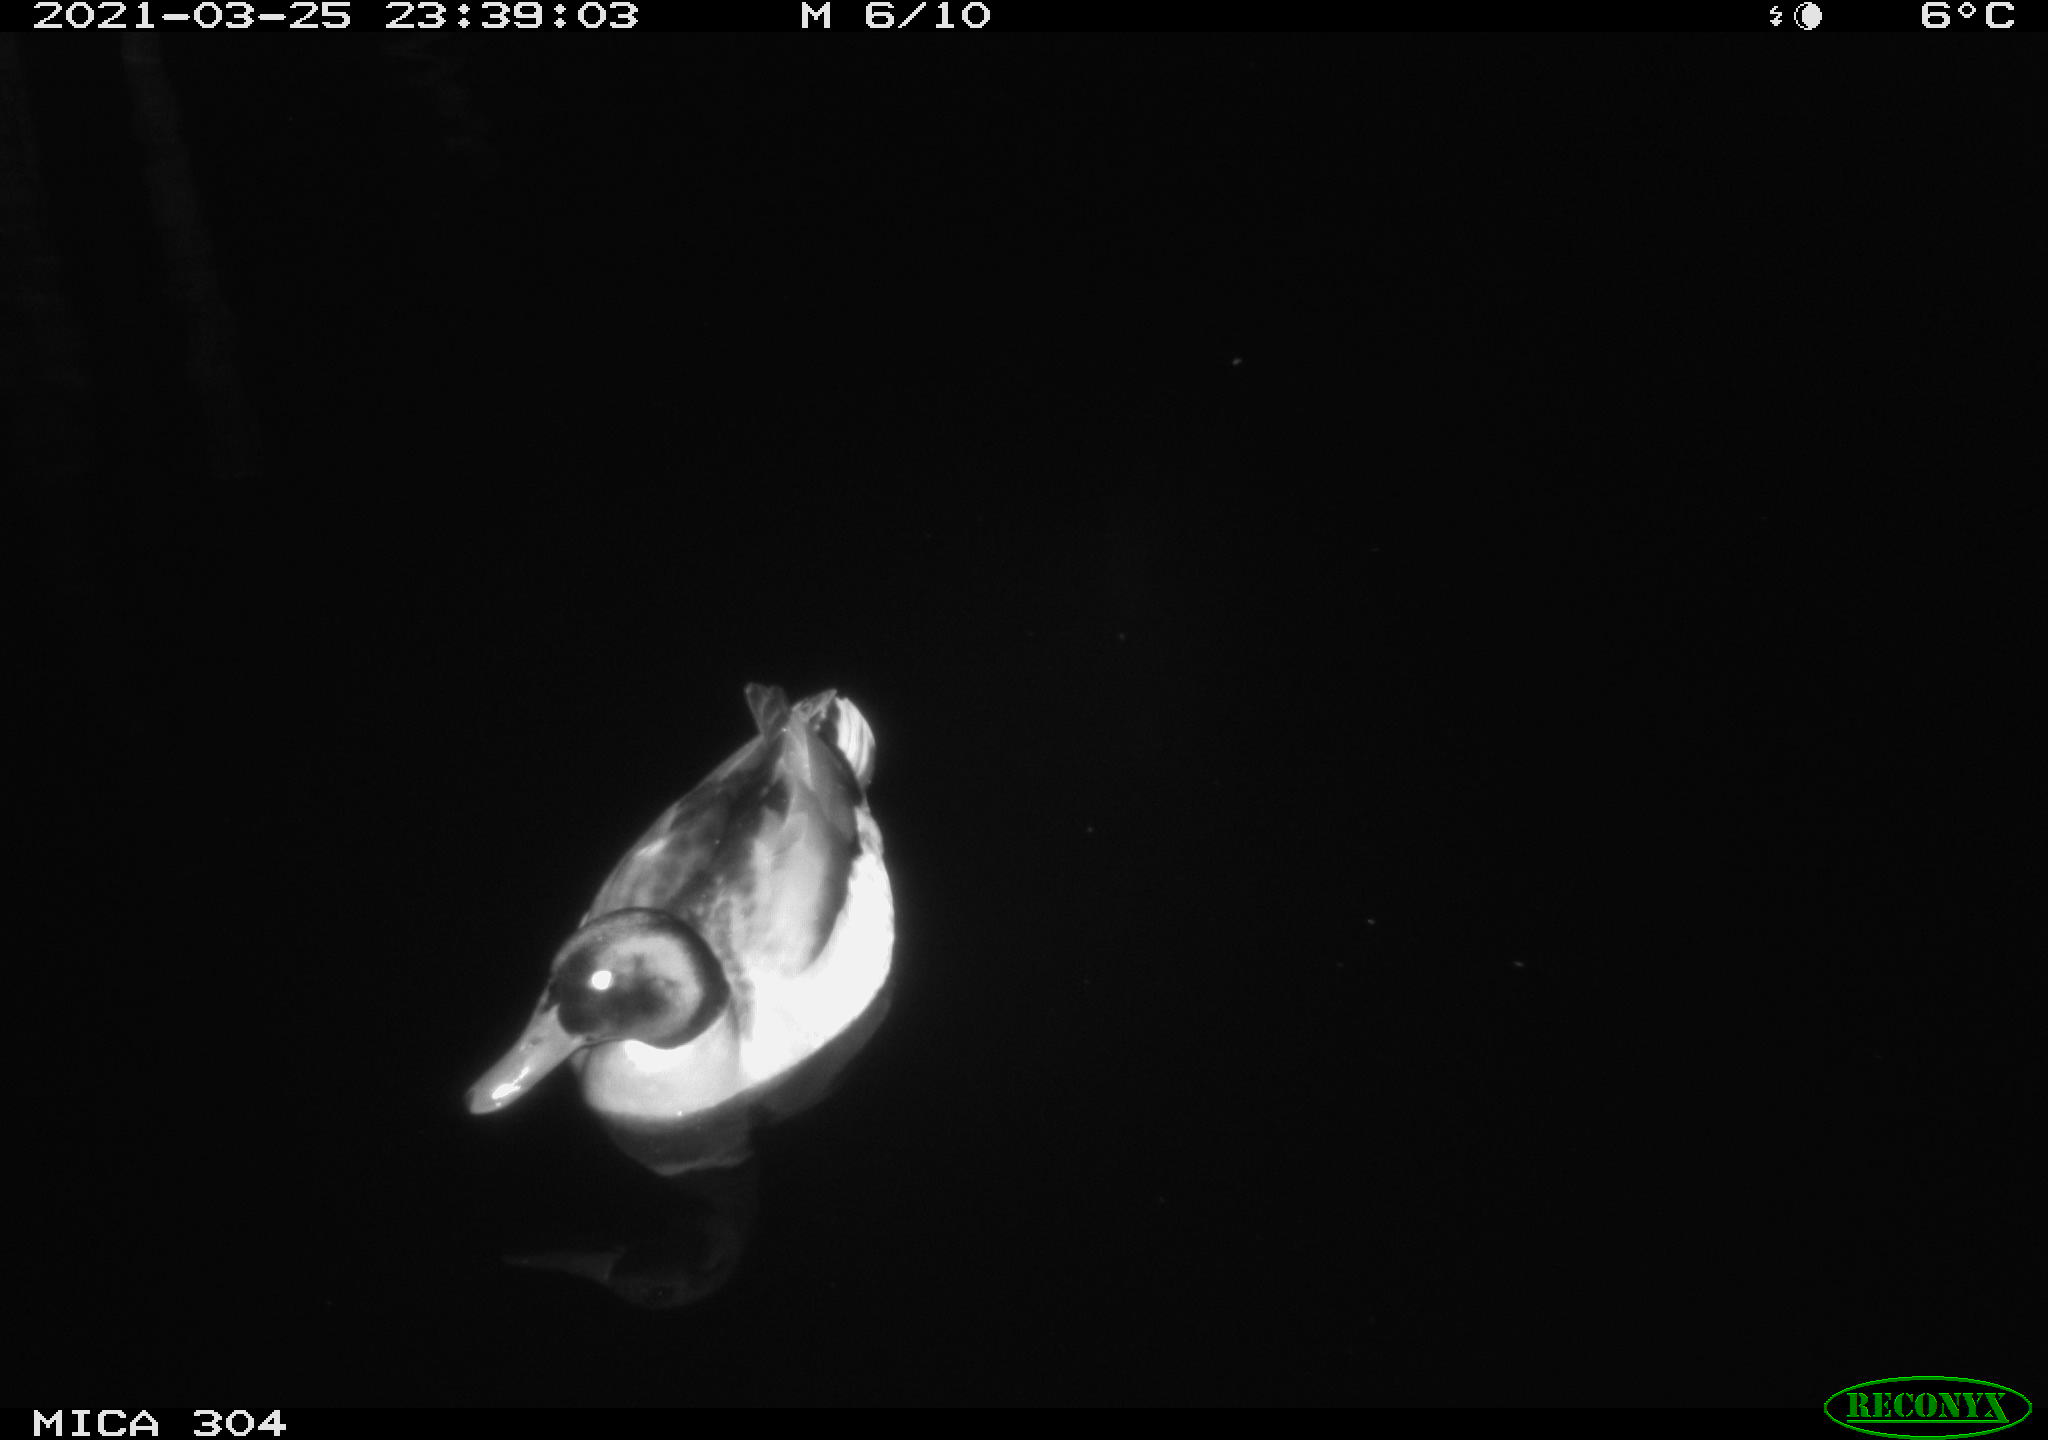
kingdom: Animalia
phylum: Chordata
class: Aves
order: Anseriformes
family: Anatidae
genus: Anas
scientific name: Anas platyrhynchos
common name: Mallard
